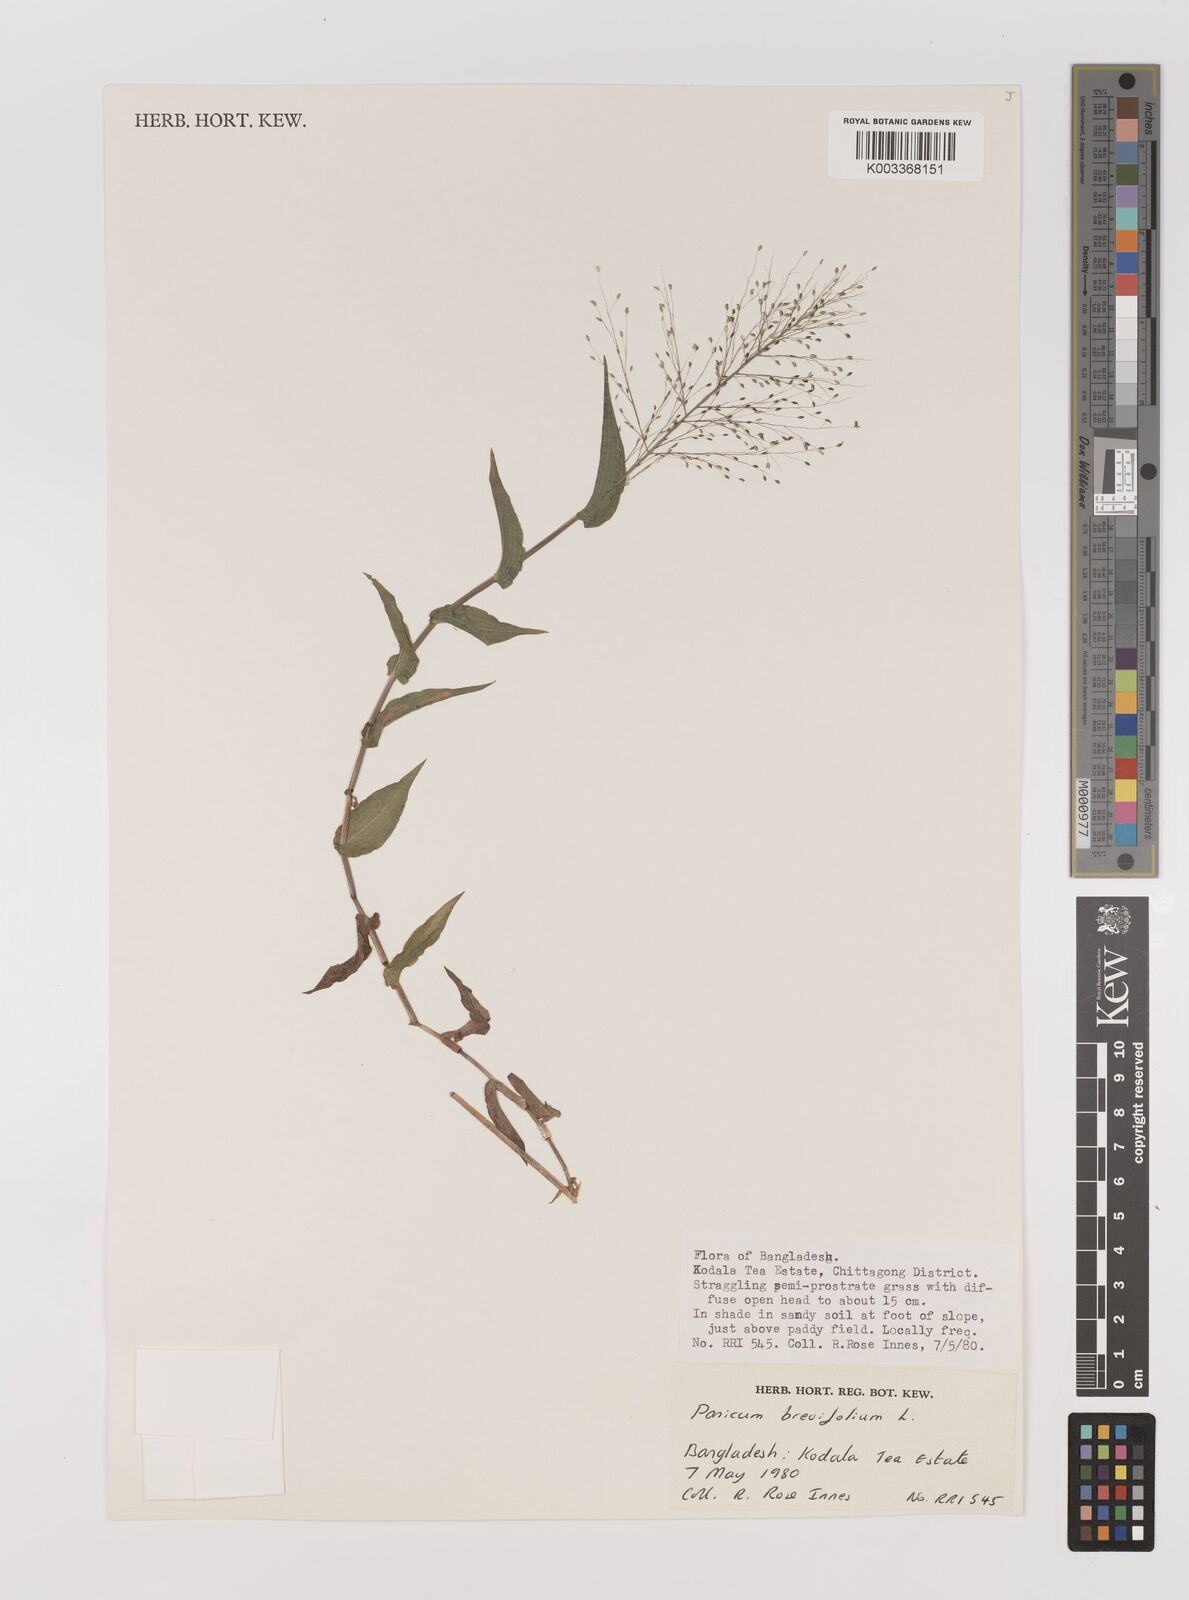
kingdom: Plantae
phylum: Tracheophyta
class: Liliopsida
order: Poales
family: Poaceae
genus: Panicum
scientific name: Panicum brevifolium
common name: Shortleaf panic grass
